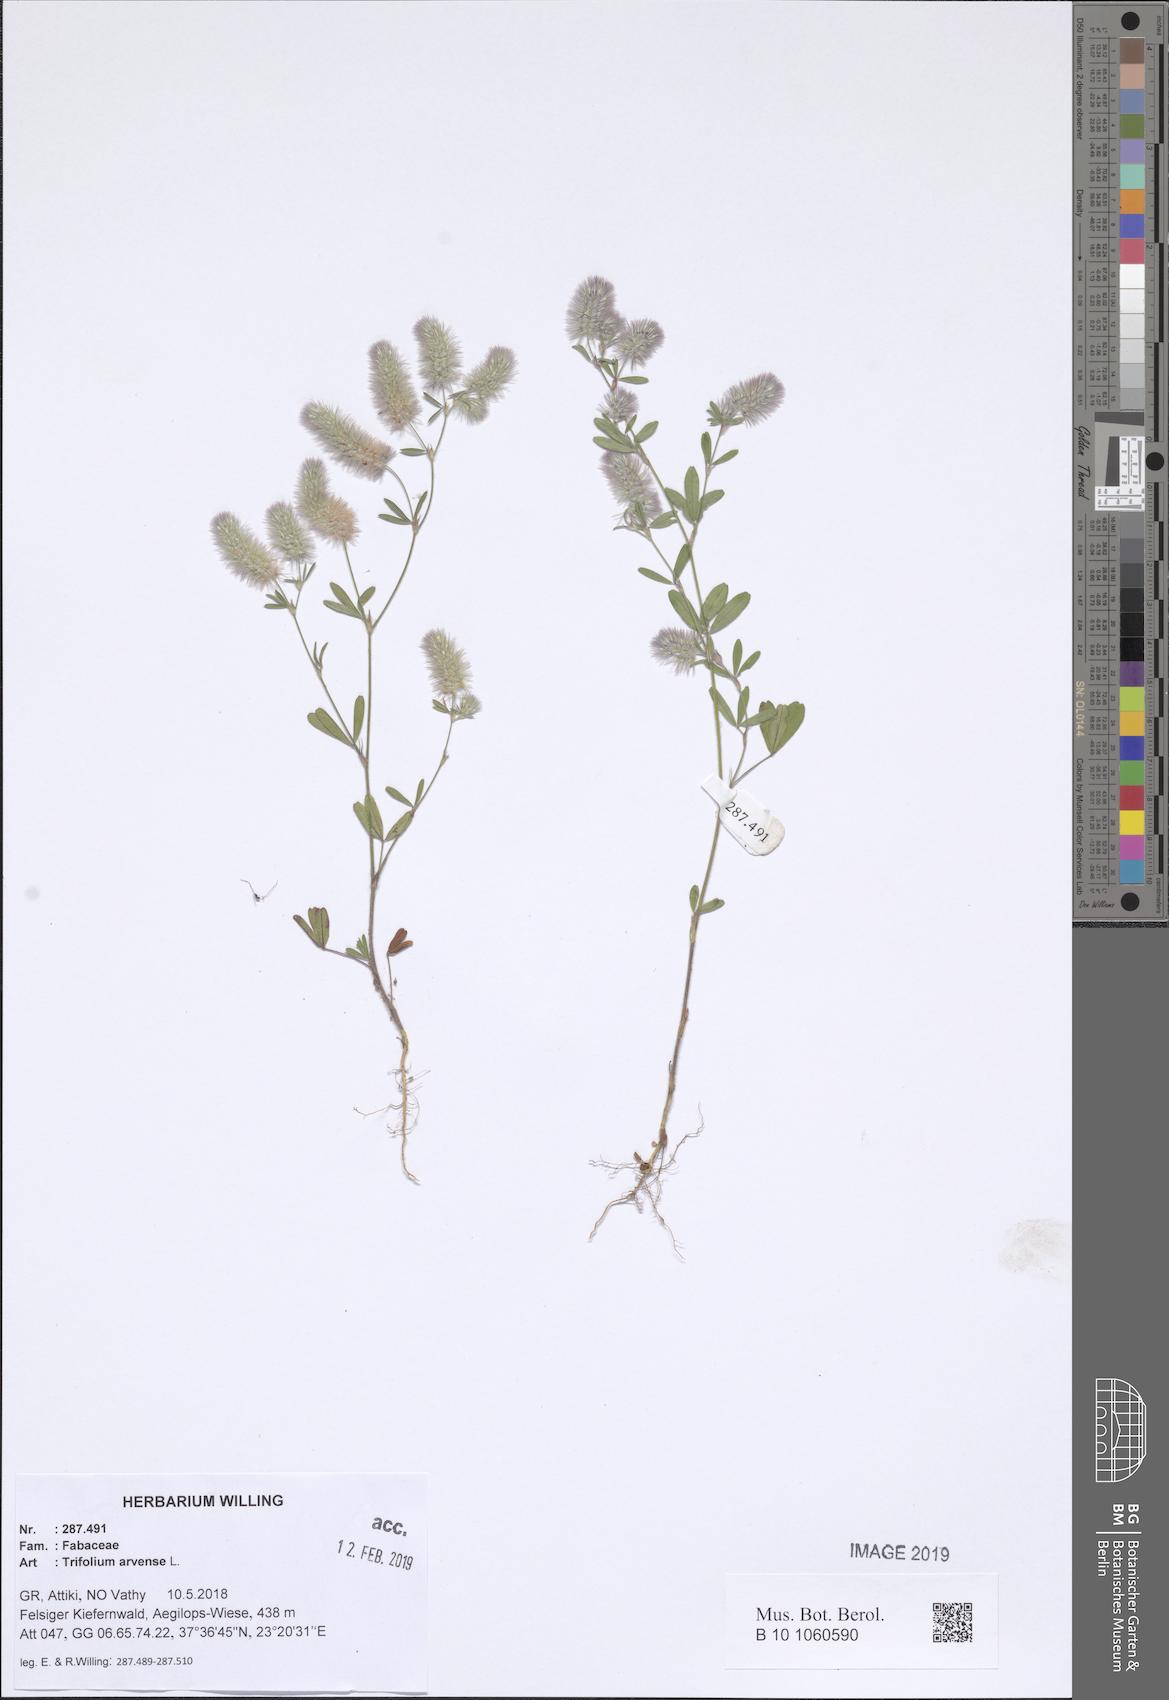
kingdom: Plantae
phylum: Tracheophyta
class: Magnoliopsida
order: Fabales
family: Fabaceae
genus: Trifolium
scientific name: Trifolium arvense
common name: Hare's-foot clover
